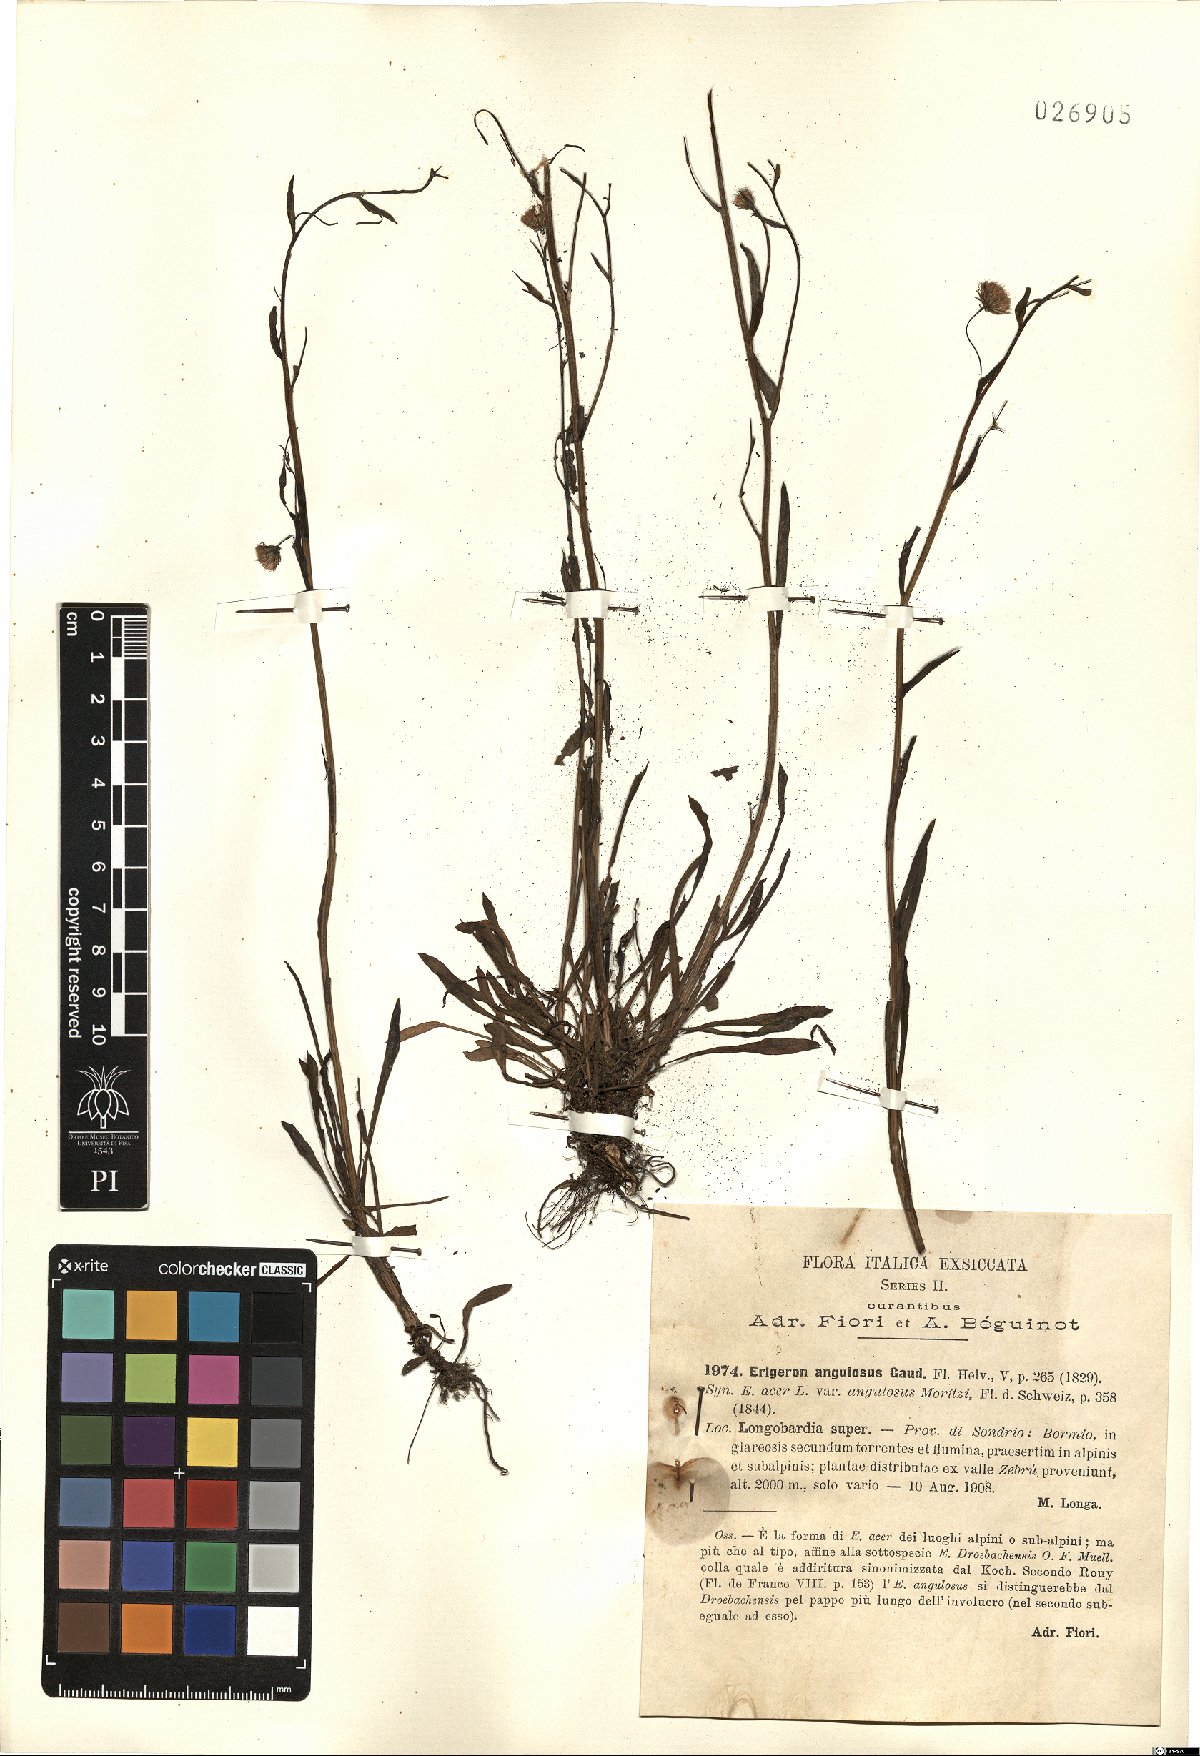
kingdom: Plantae
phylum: Tracheophyta
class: Magnoliopsida
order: Asterales
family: Asteraceae
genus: Erigeron
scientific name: Erigeron angulosus
